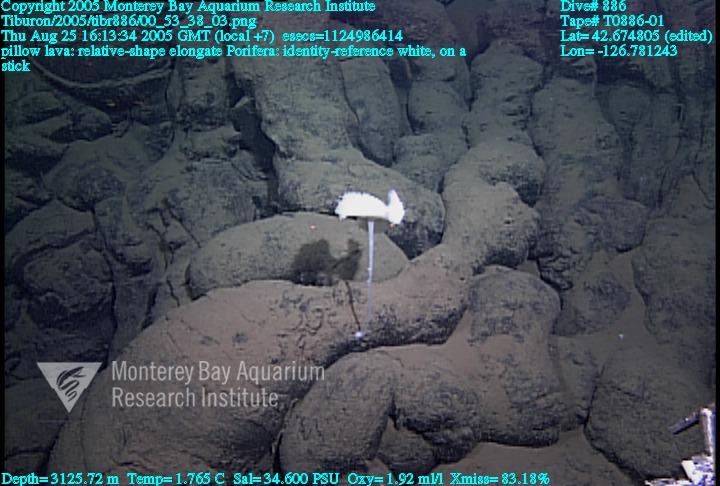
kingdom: Animalia
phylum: Porifera
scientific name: Porifera
